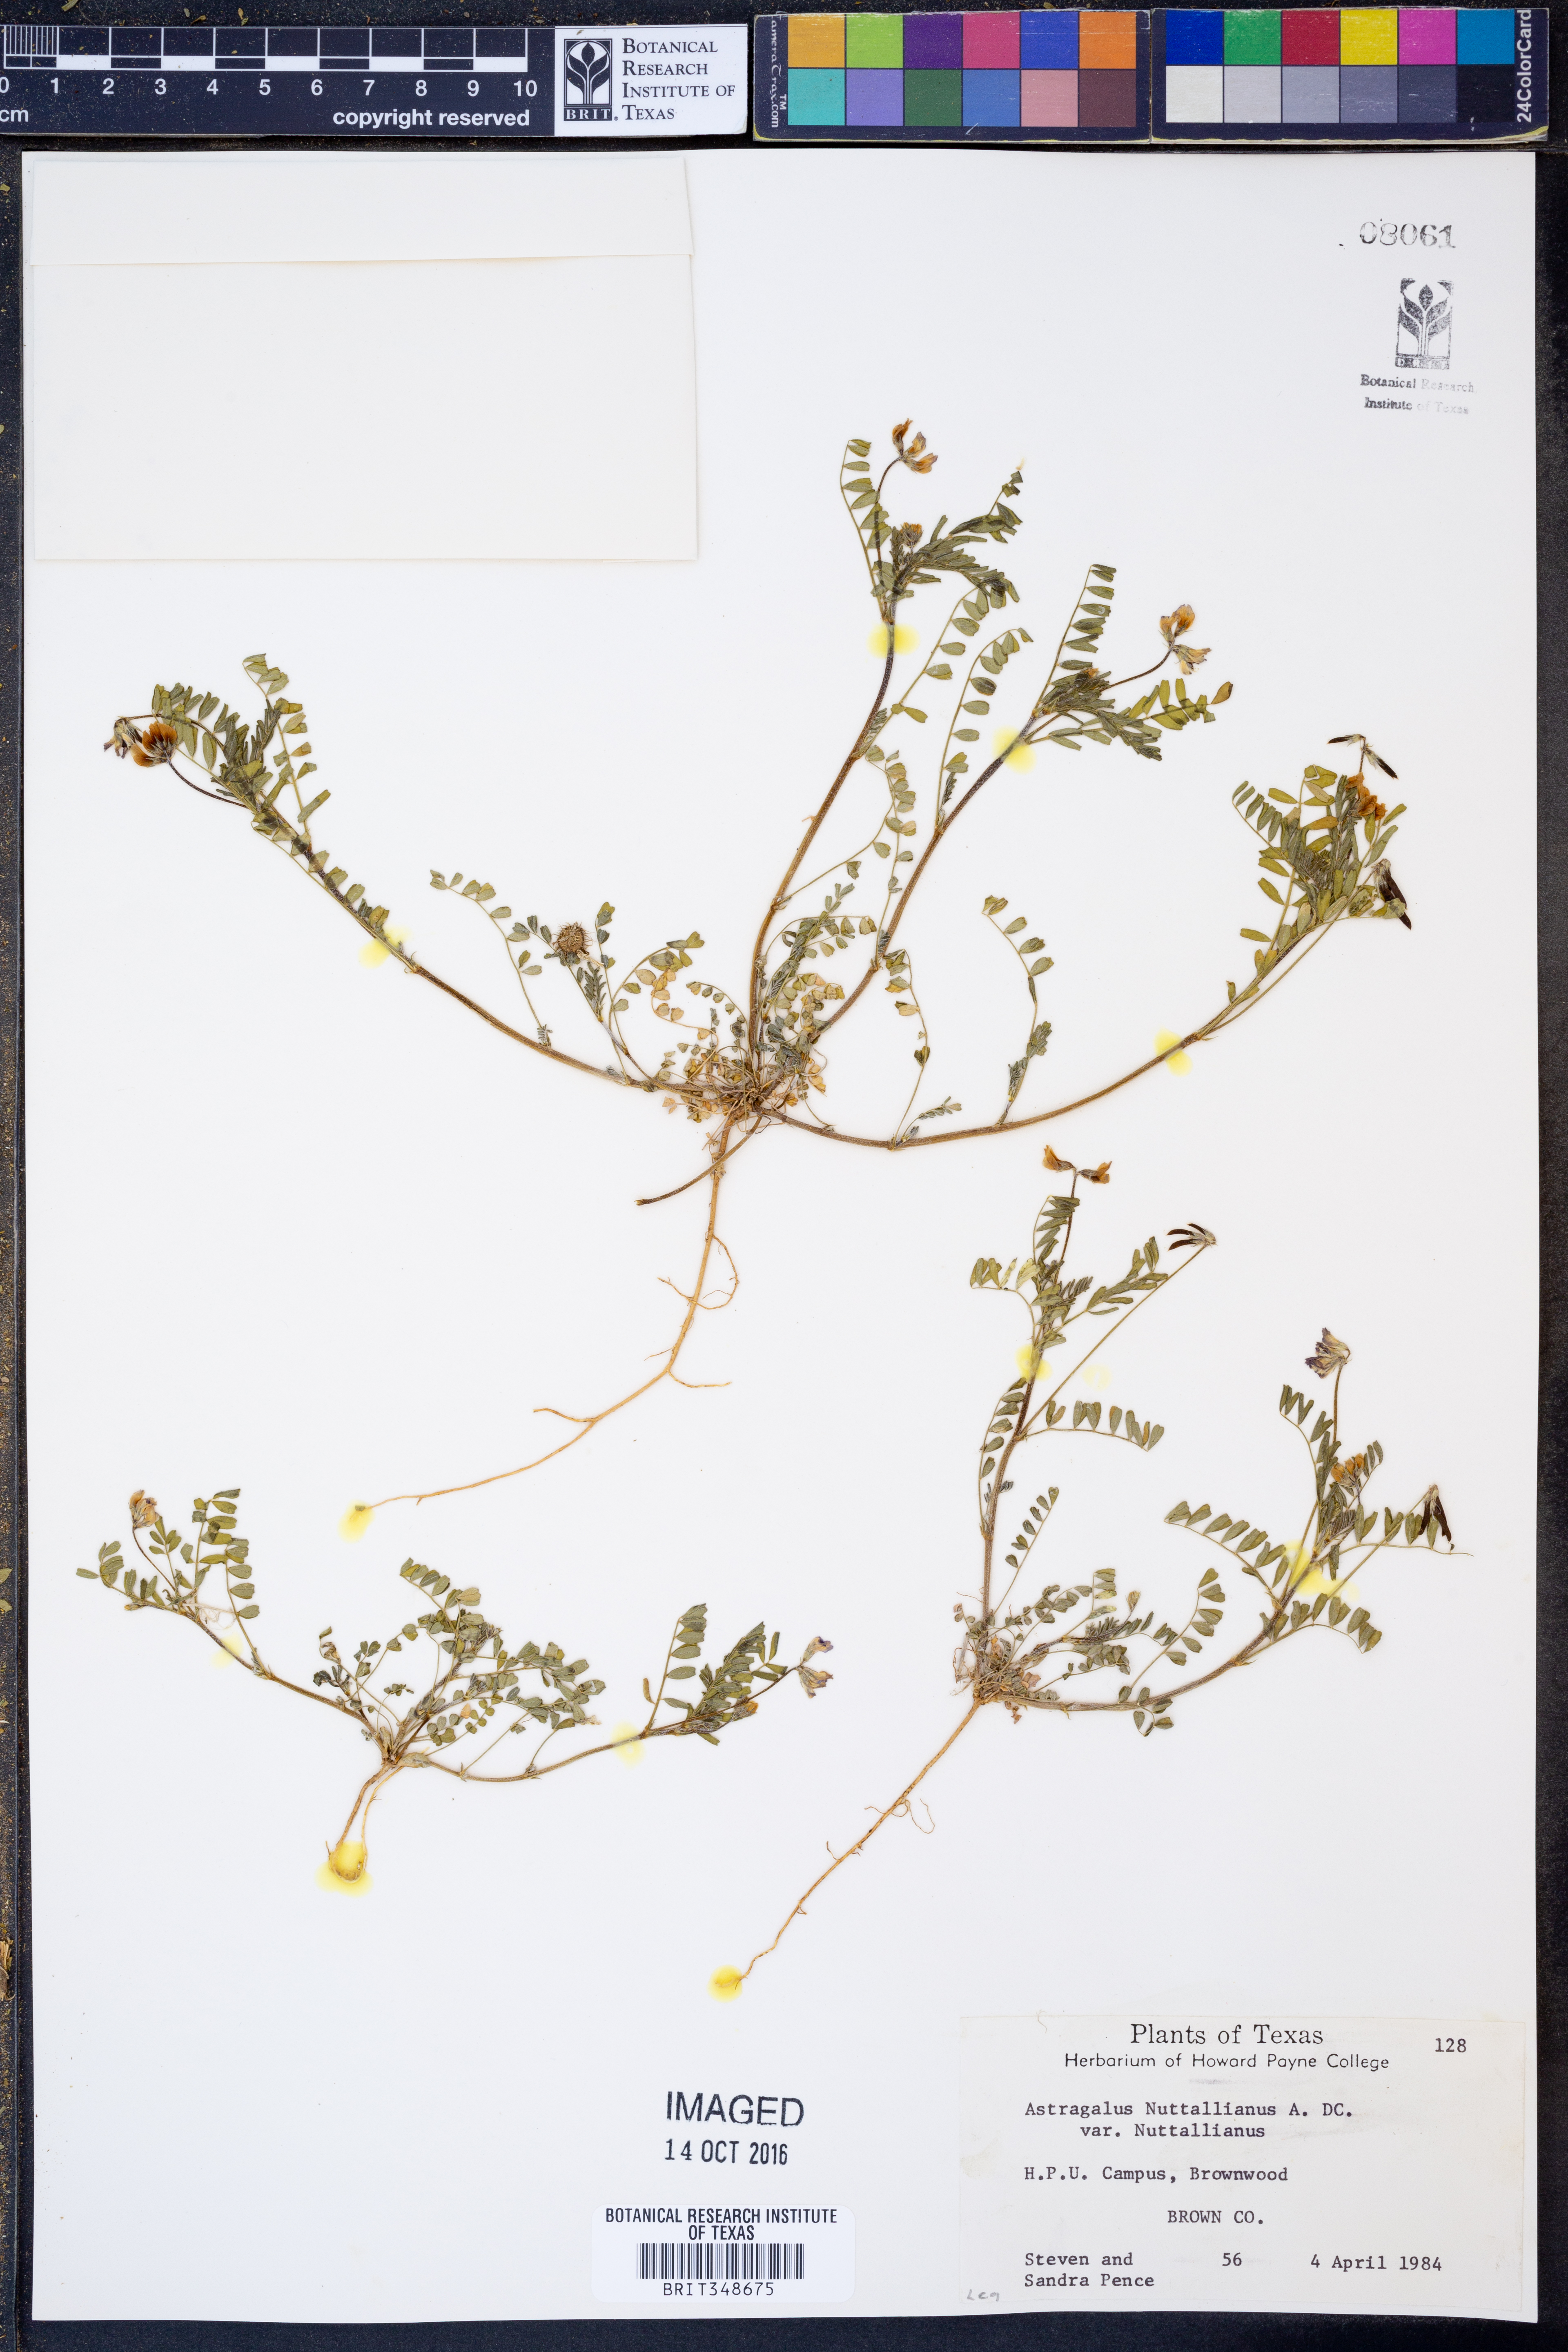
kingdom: Plantae
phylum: Tracheophyta
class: Magnoliopsida
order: Fabales
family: Fabaceae
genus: Astragalus
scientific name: Astragalus nuttallianus
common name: Smallflowered milkvetch
